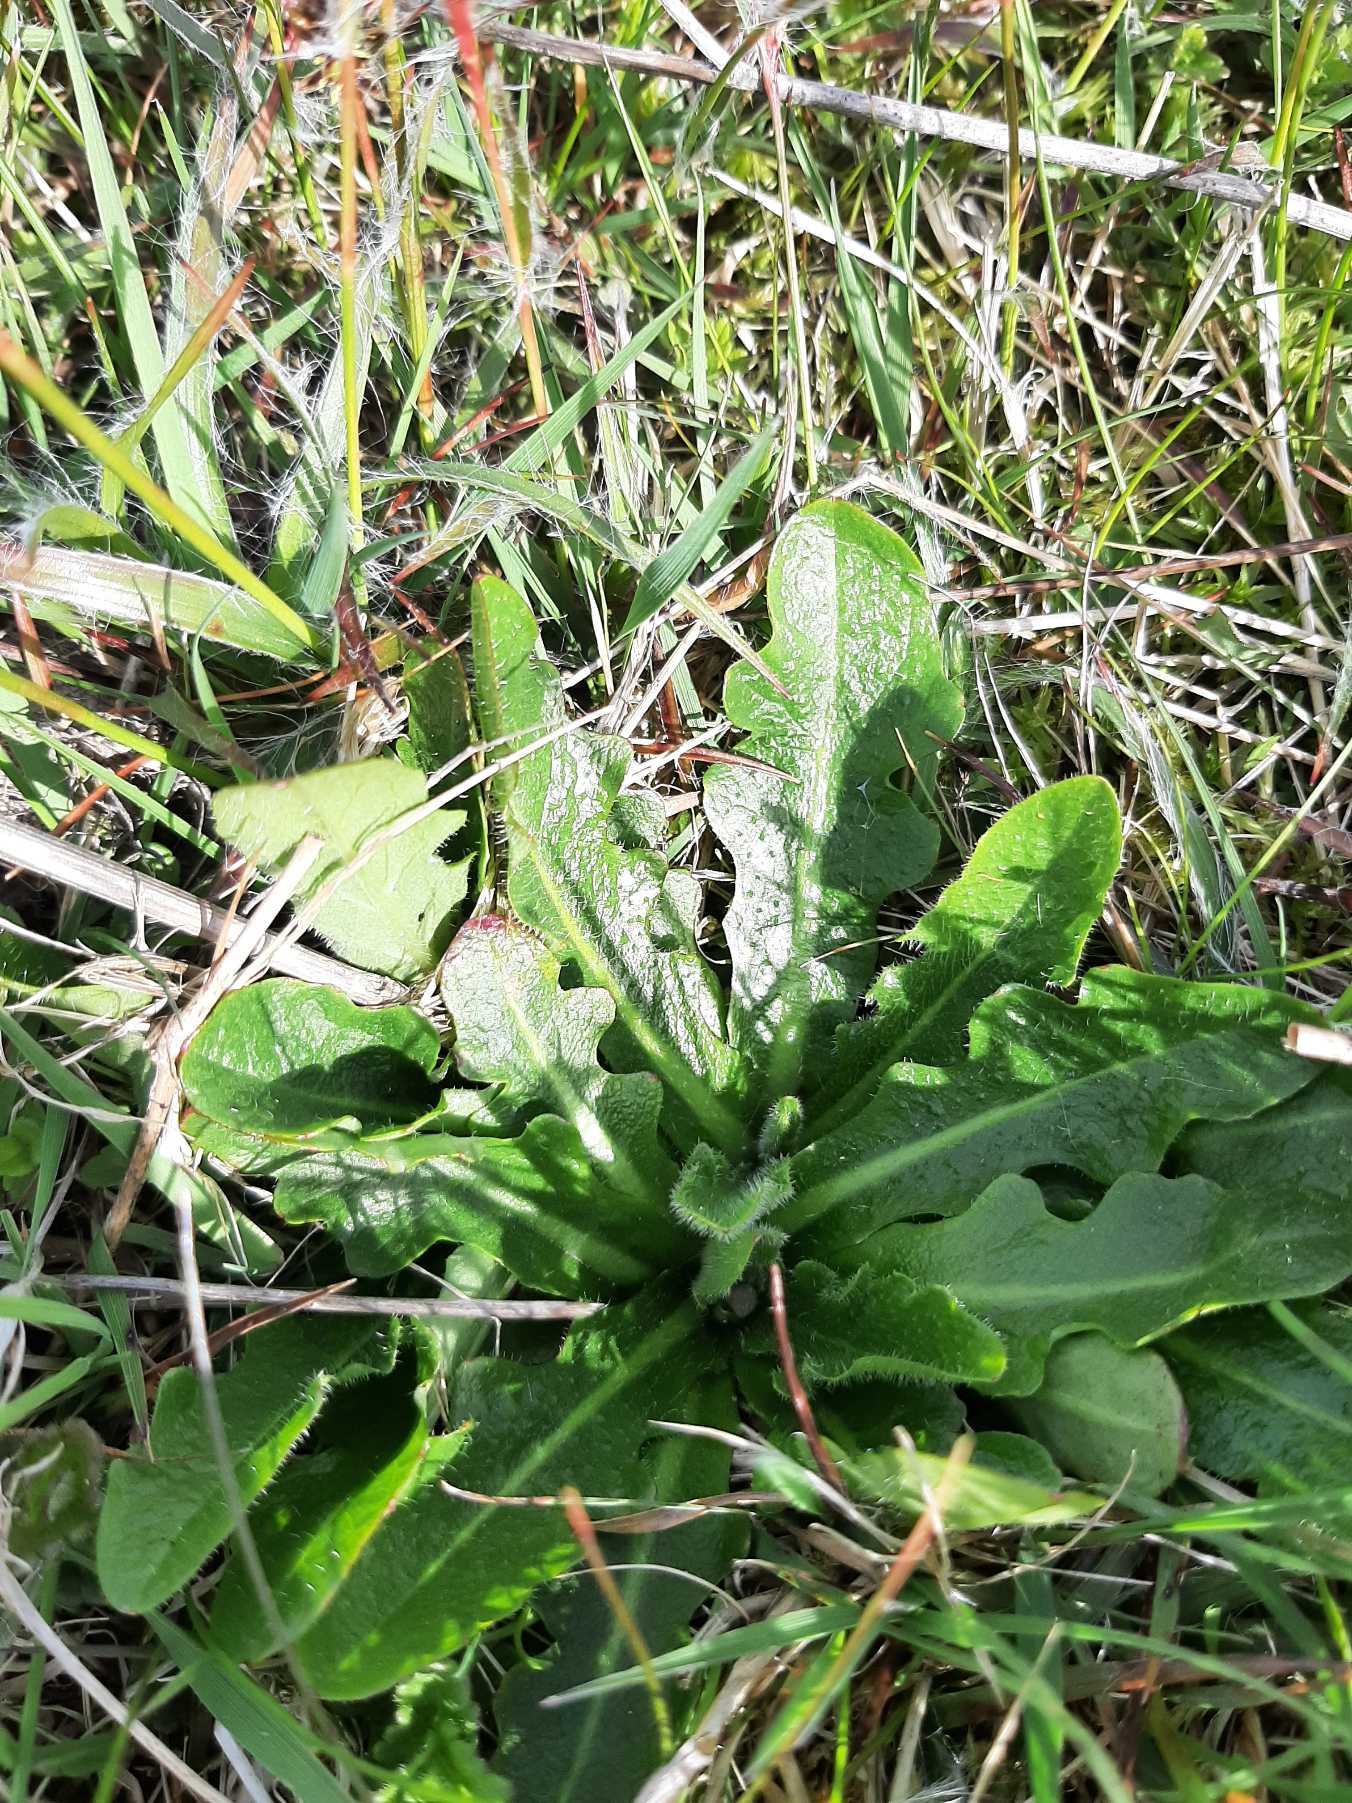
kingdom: Plantae
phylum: Tracheophyta
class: Magnoliopsida
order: Asterales
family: Asteraceae
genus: Hypochaeris
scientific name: Hypochaeris radicata
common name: Almindelig kongepen
